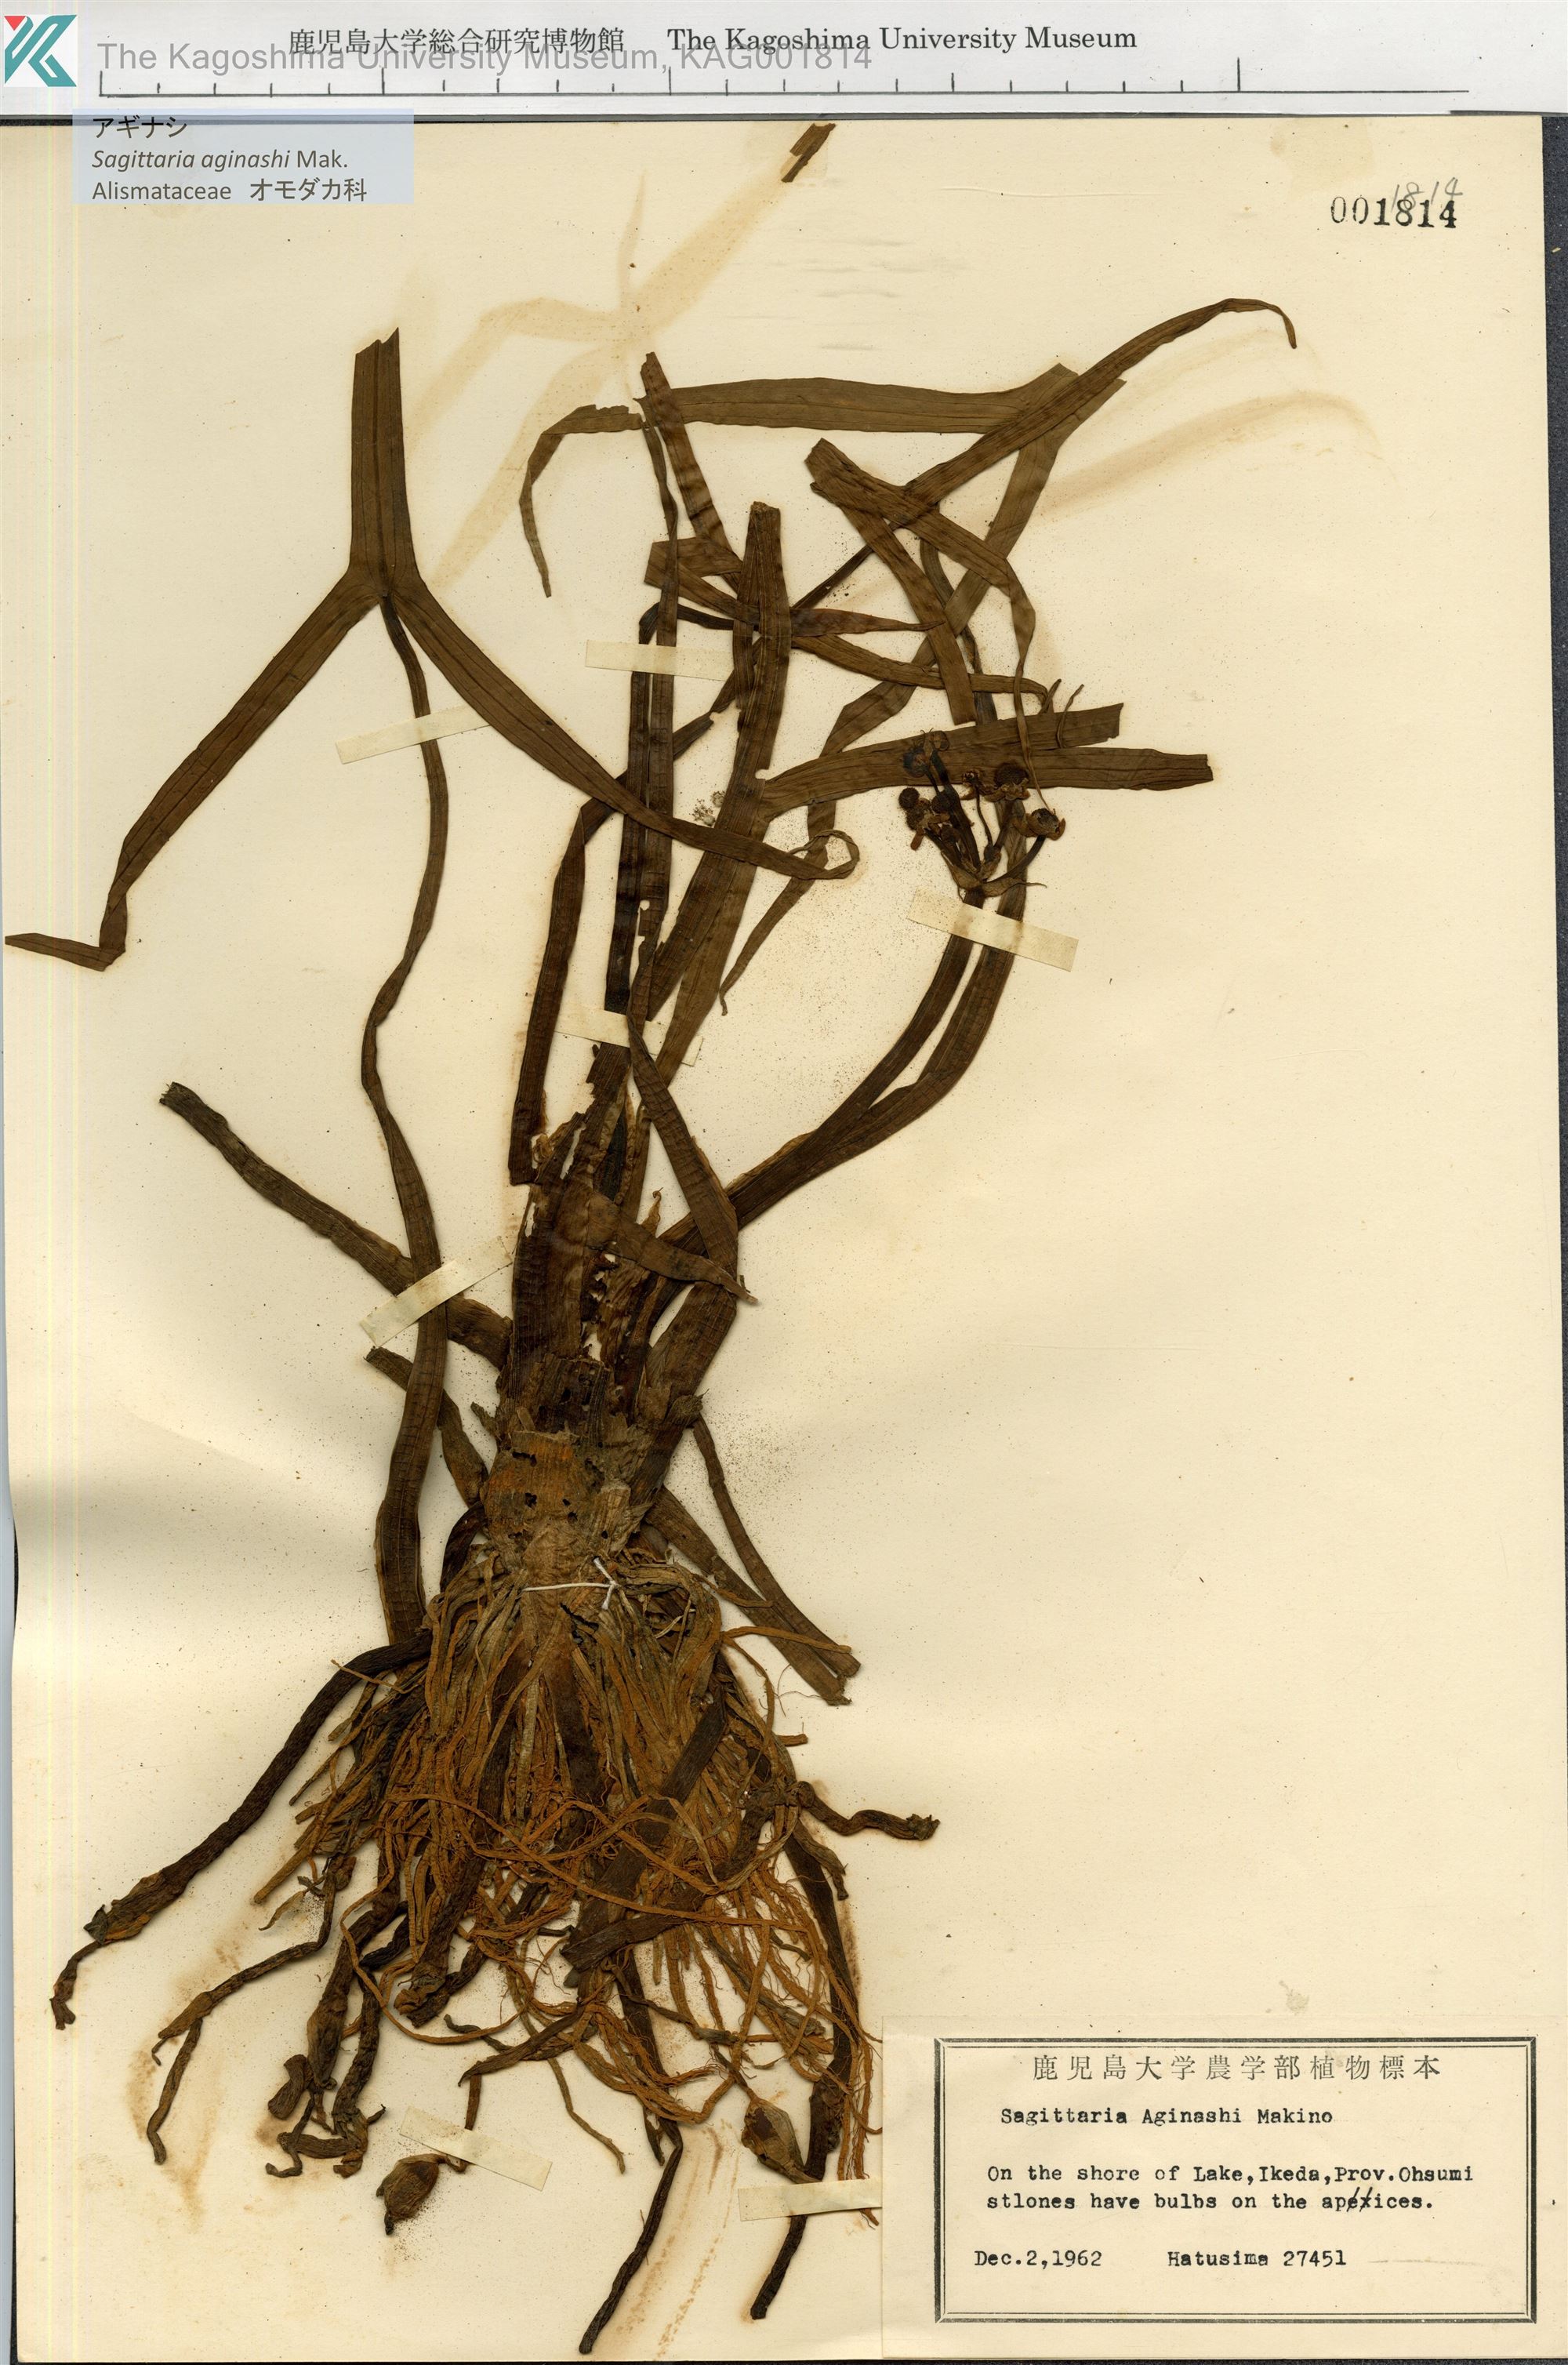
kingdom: Plantae
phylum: Tracheophyta
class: Liliopsida
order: Alismatales
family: Alismataceae
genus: Sagittaria
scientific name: Sagittaria aginashi
